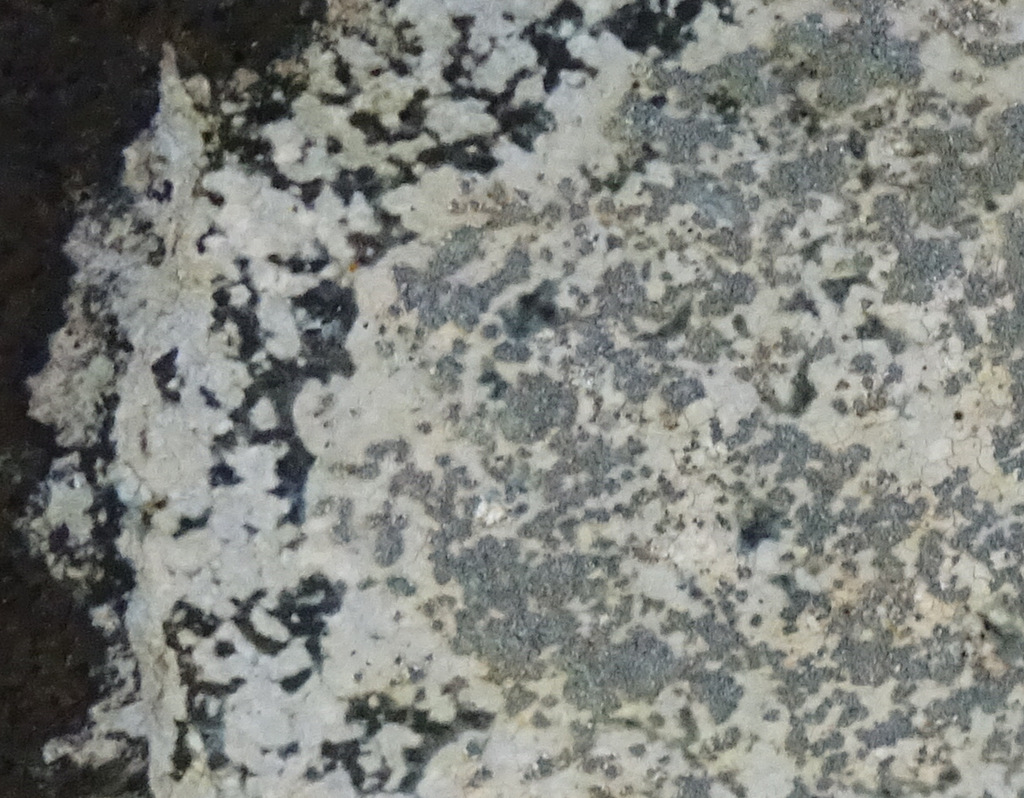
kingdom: Fungi
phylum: Ascomycota
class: Lecanoromycetes
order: Lecideales
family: Lecideaceae
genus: Porpidia
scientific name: Porpidia
